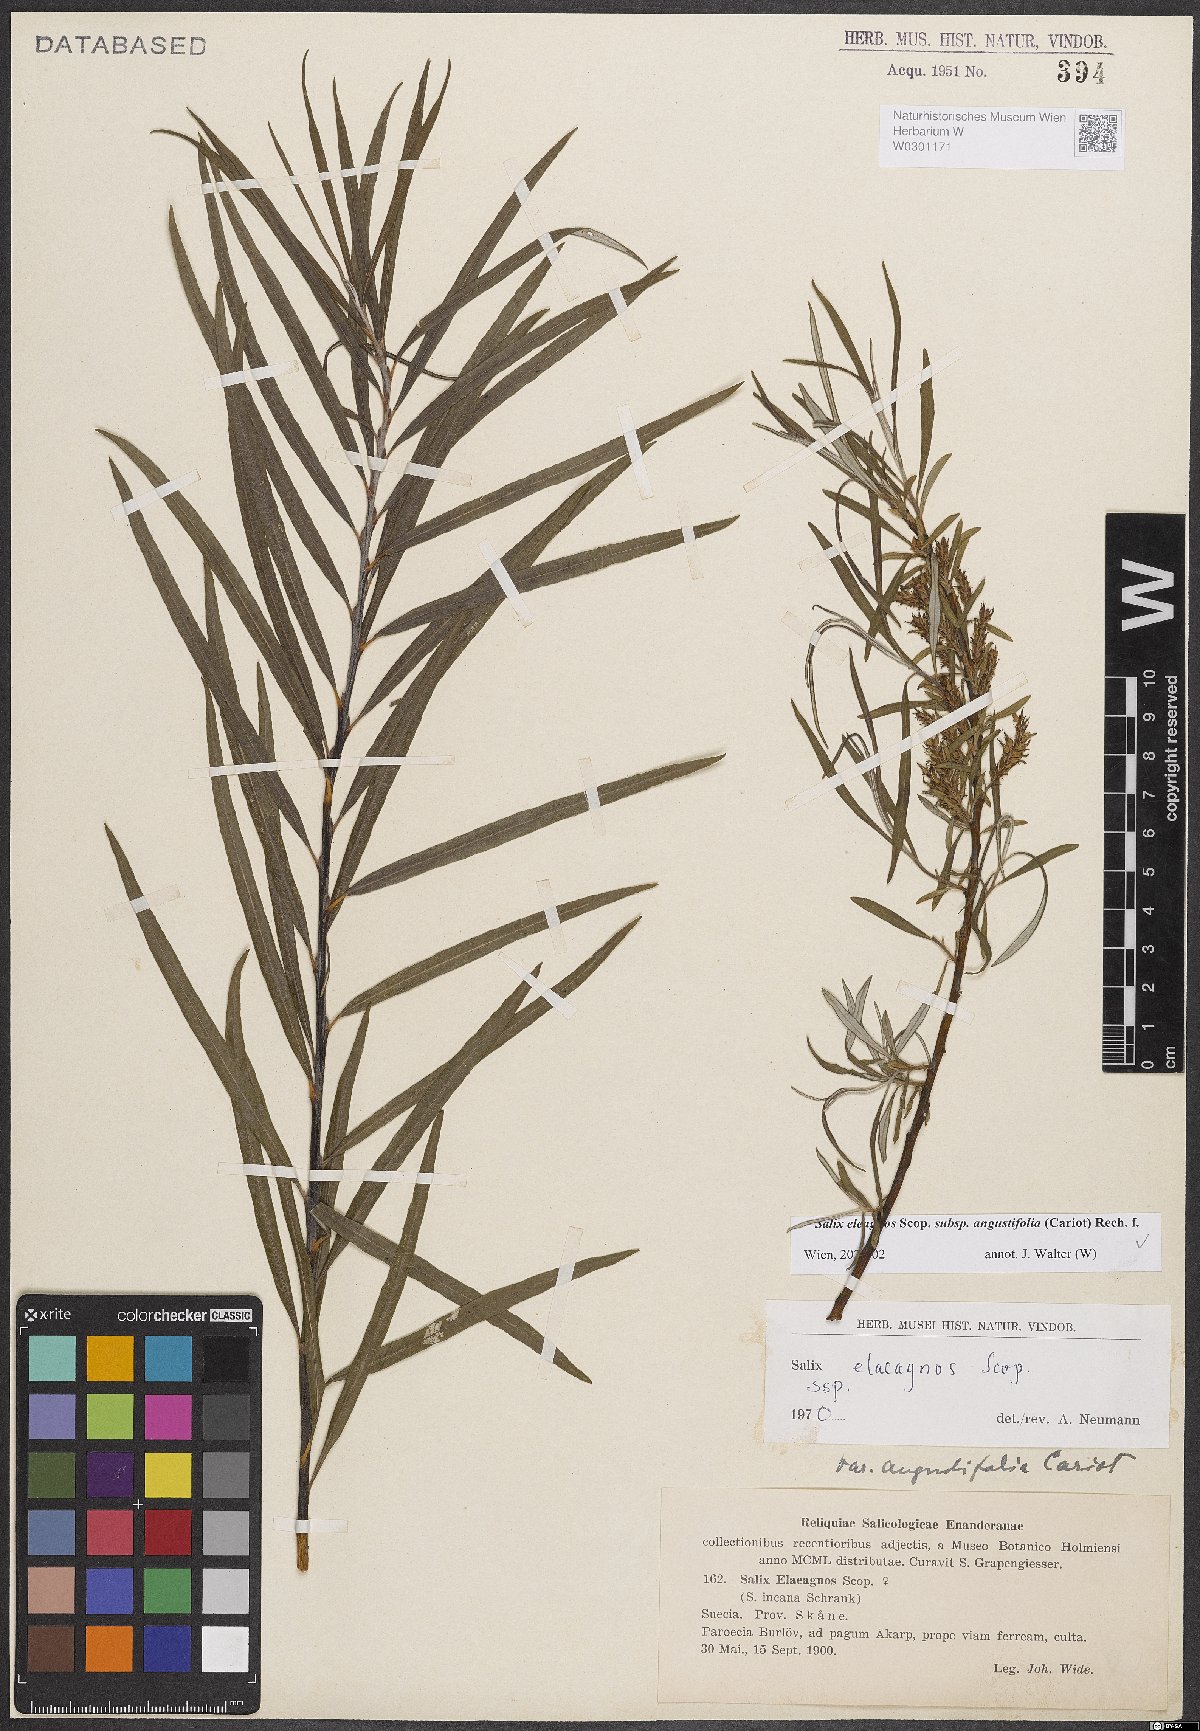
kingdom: Plantae
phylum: Tracheophyta
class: Magnoliopsida
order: Malpighiales
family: Salicaceae
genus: Salix
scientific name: Salix eleagnos
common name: Elaeagnus willow
